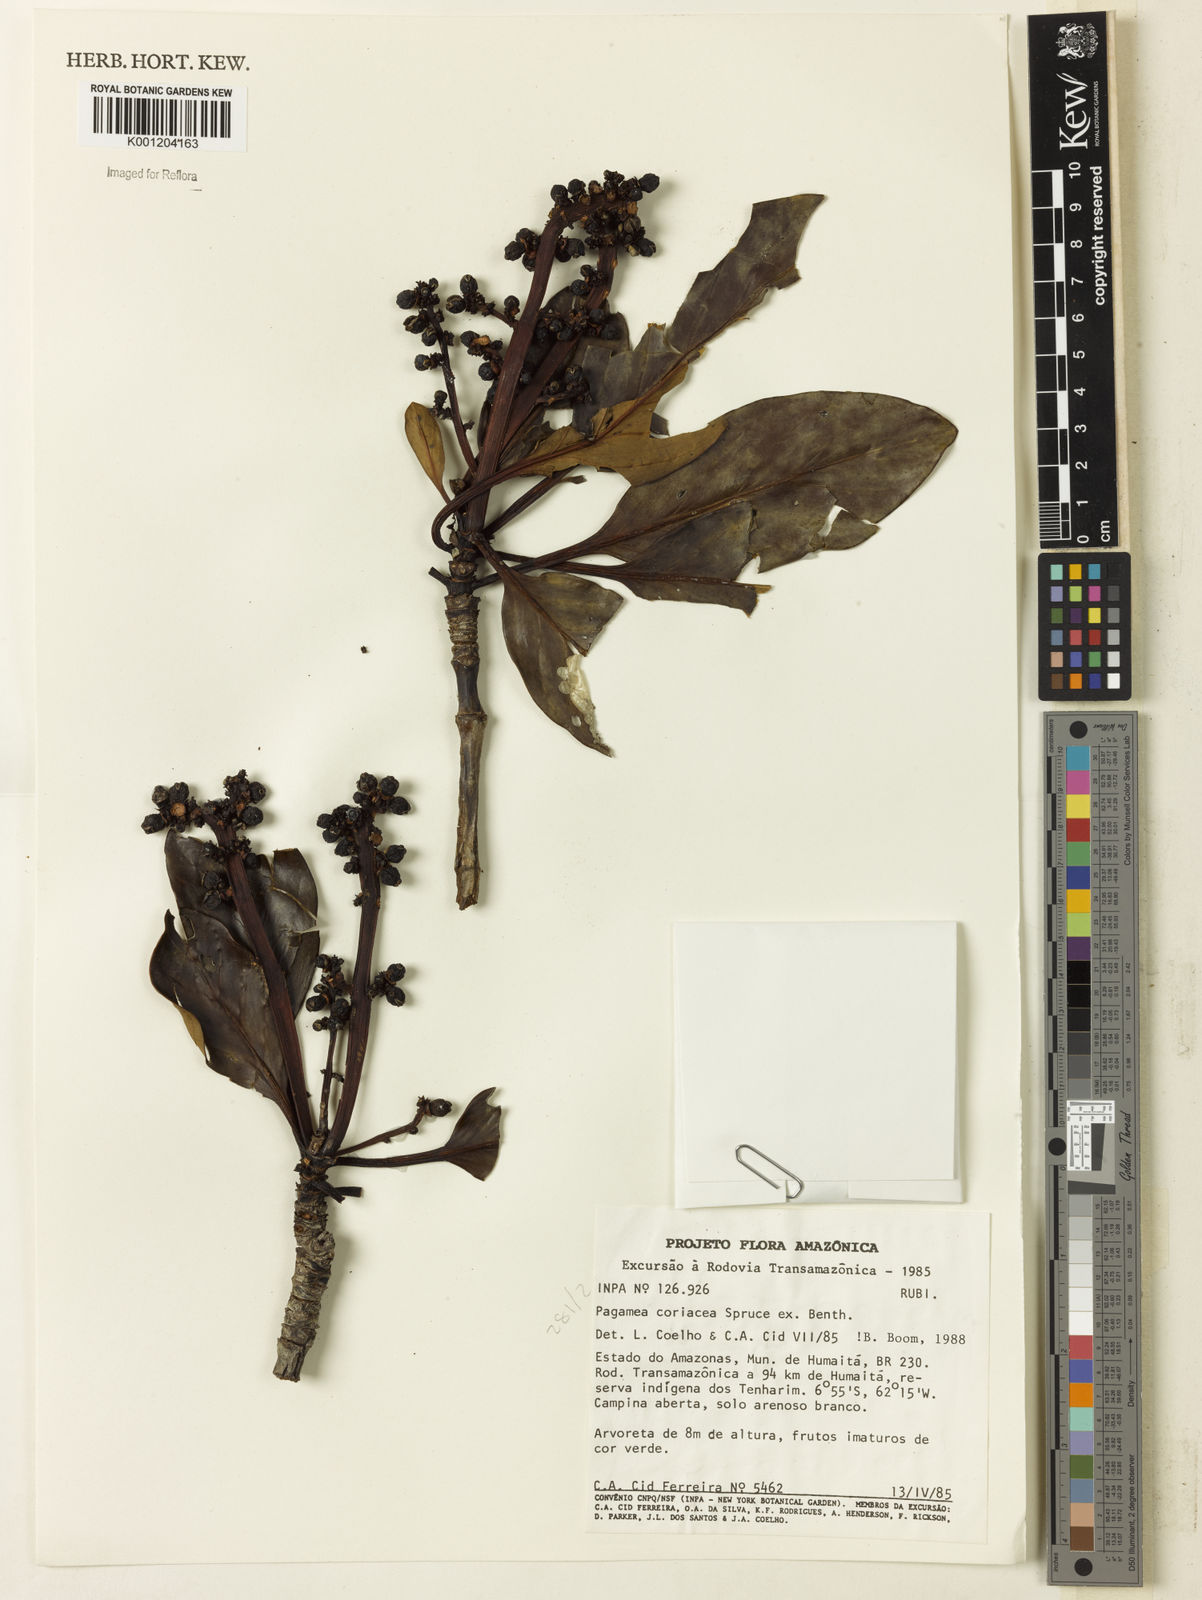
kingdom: Plantae
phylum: Tracheophyta
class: Magnoliopsida
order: Gentianales
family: Rubiaceae
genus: Pagamea
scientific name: Pagamea coriacea
